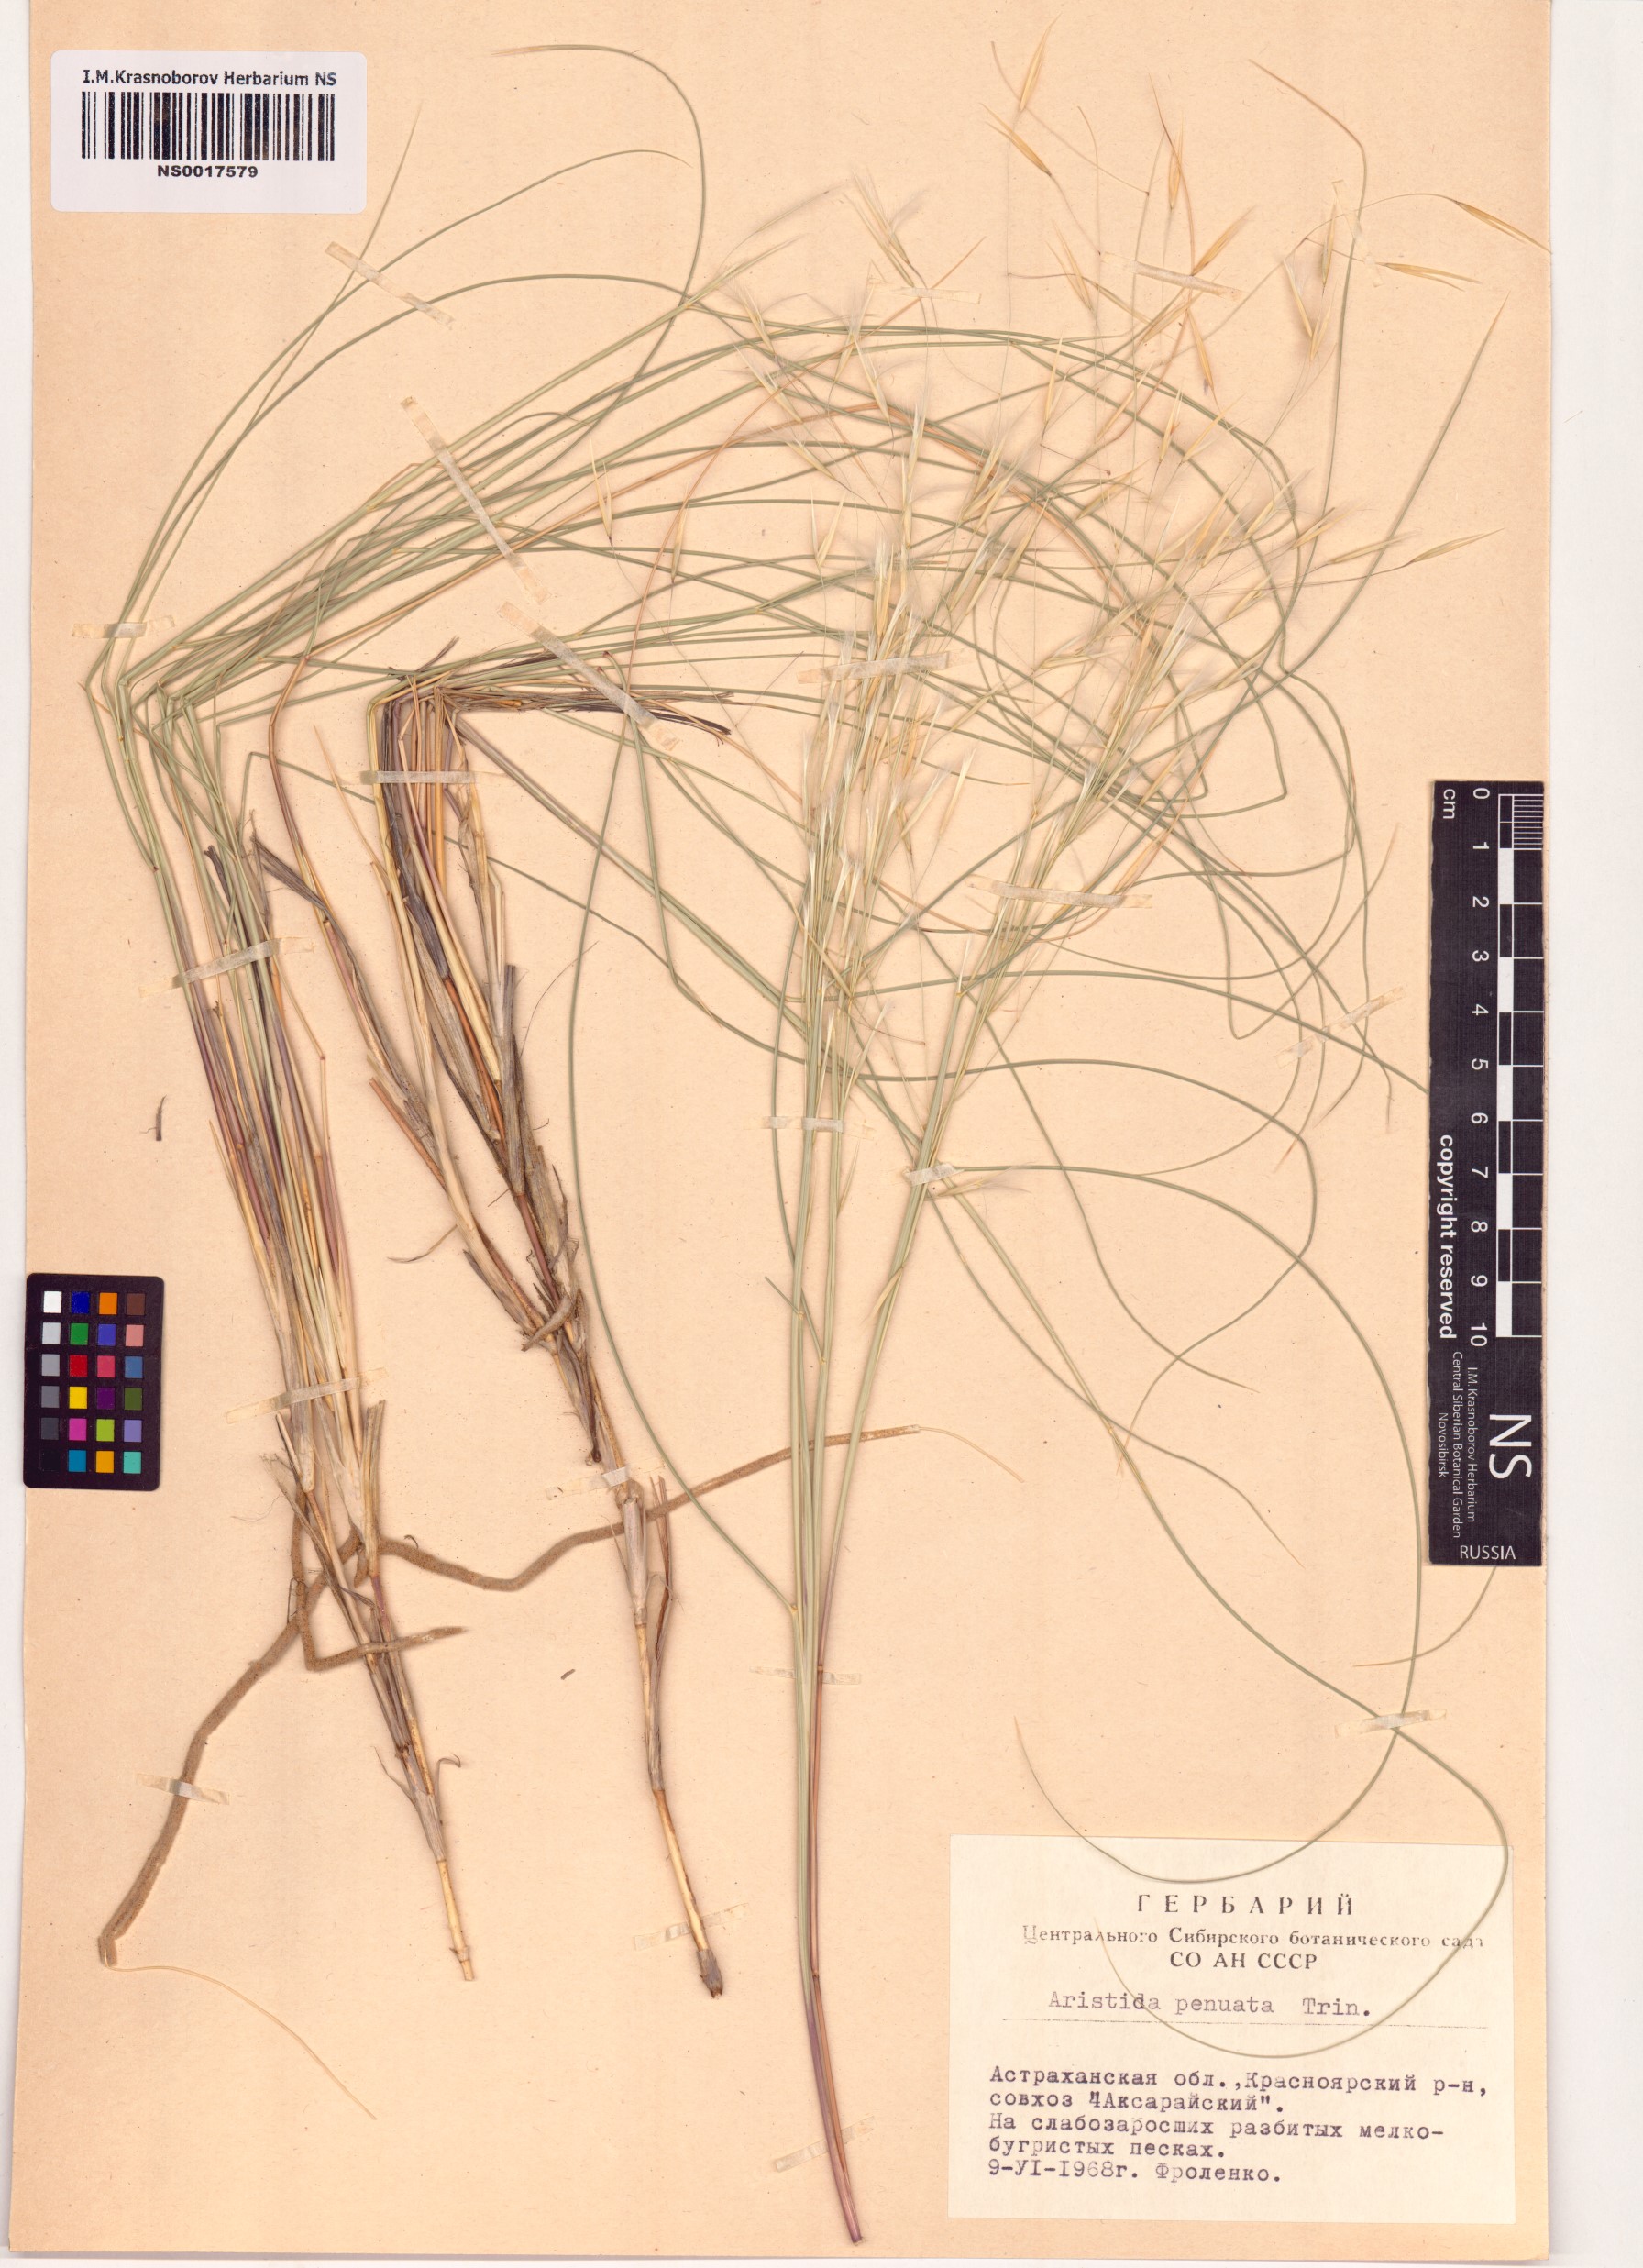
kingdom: Plantae
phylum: Tracheophyta
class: Liliopsida
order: Poales
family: Poaceae
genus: Stipagrostis
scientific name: Stipagrostis pennata
